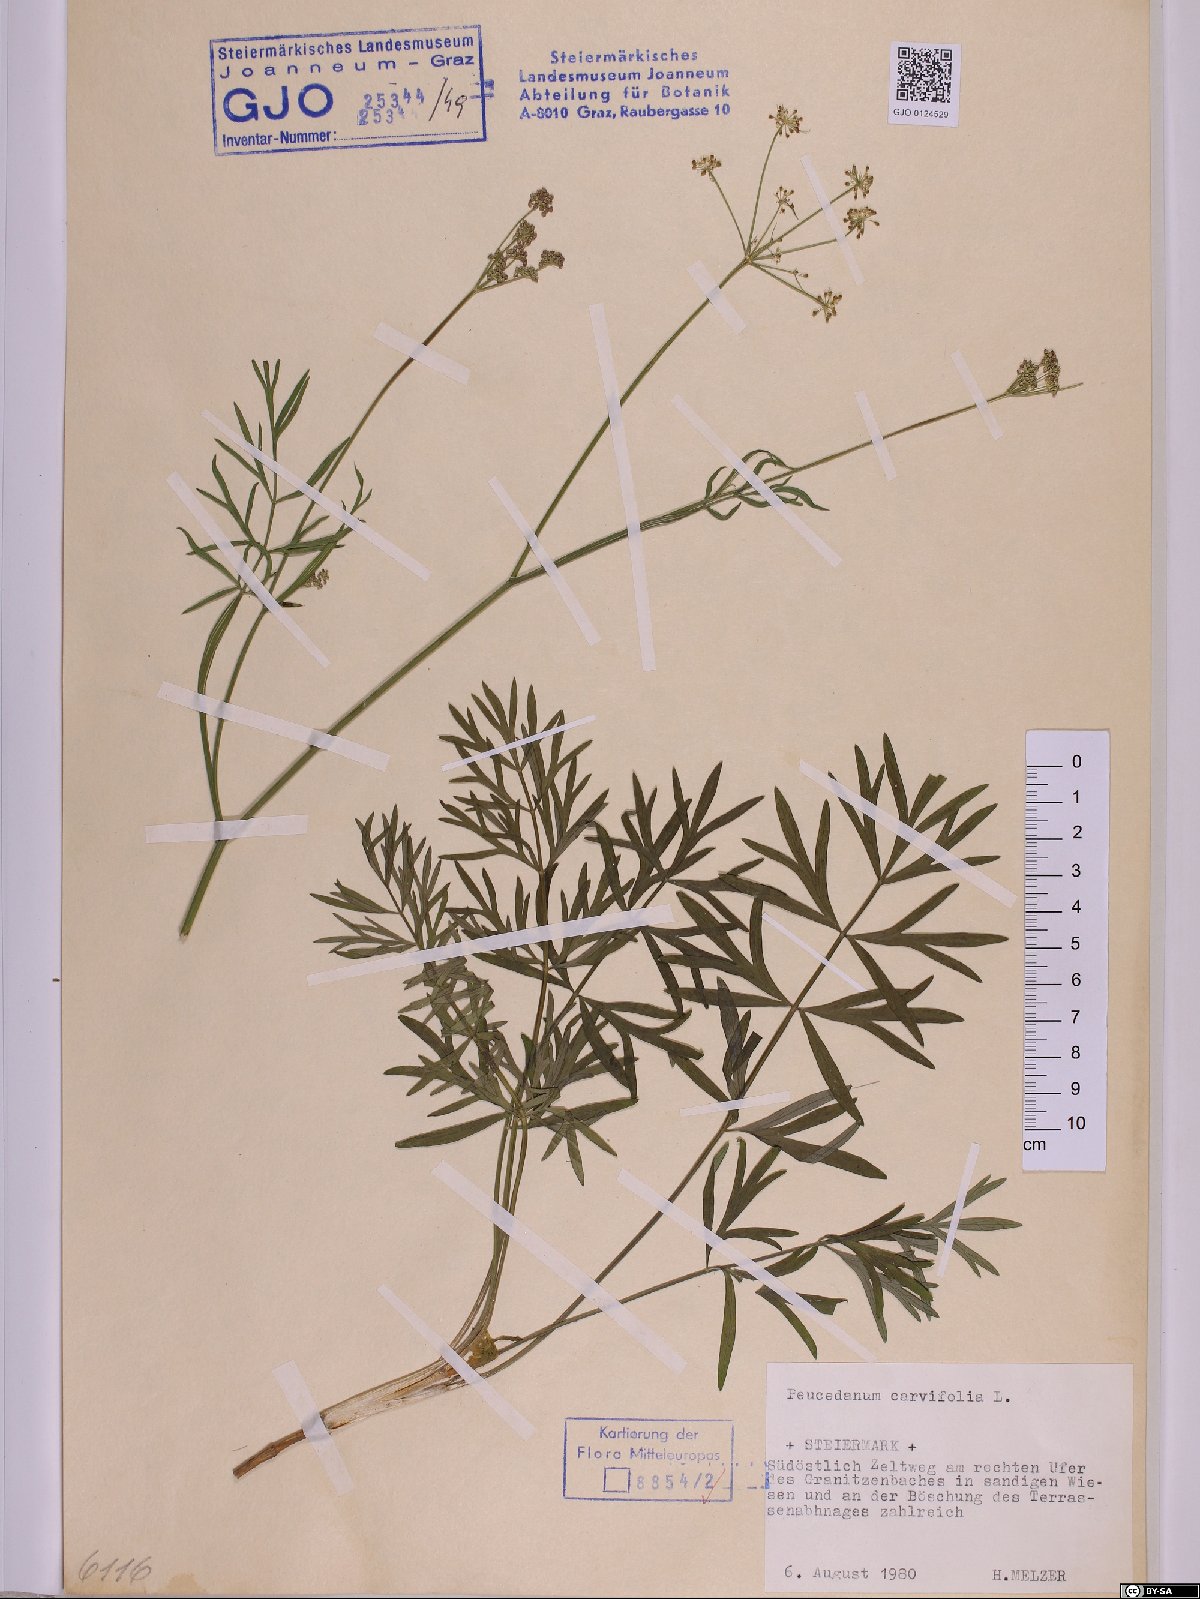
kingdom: Plantae
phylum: Tracheophyta
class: Magnoliopsida
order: Apiales
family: Apiaceae
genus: Dichoropetalum
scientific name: Dichoropetalum carvifolia
